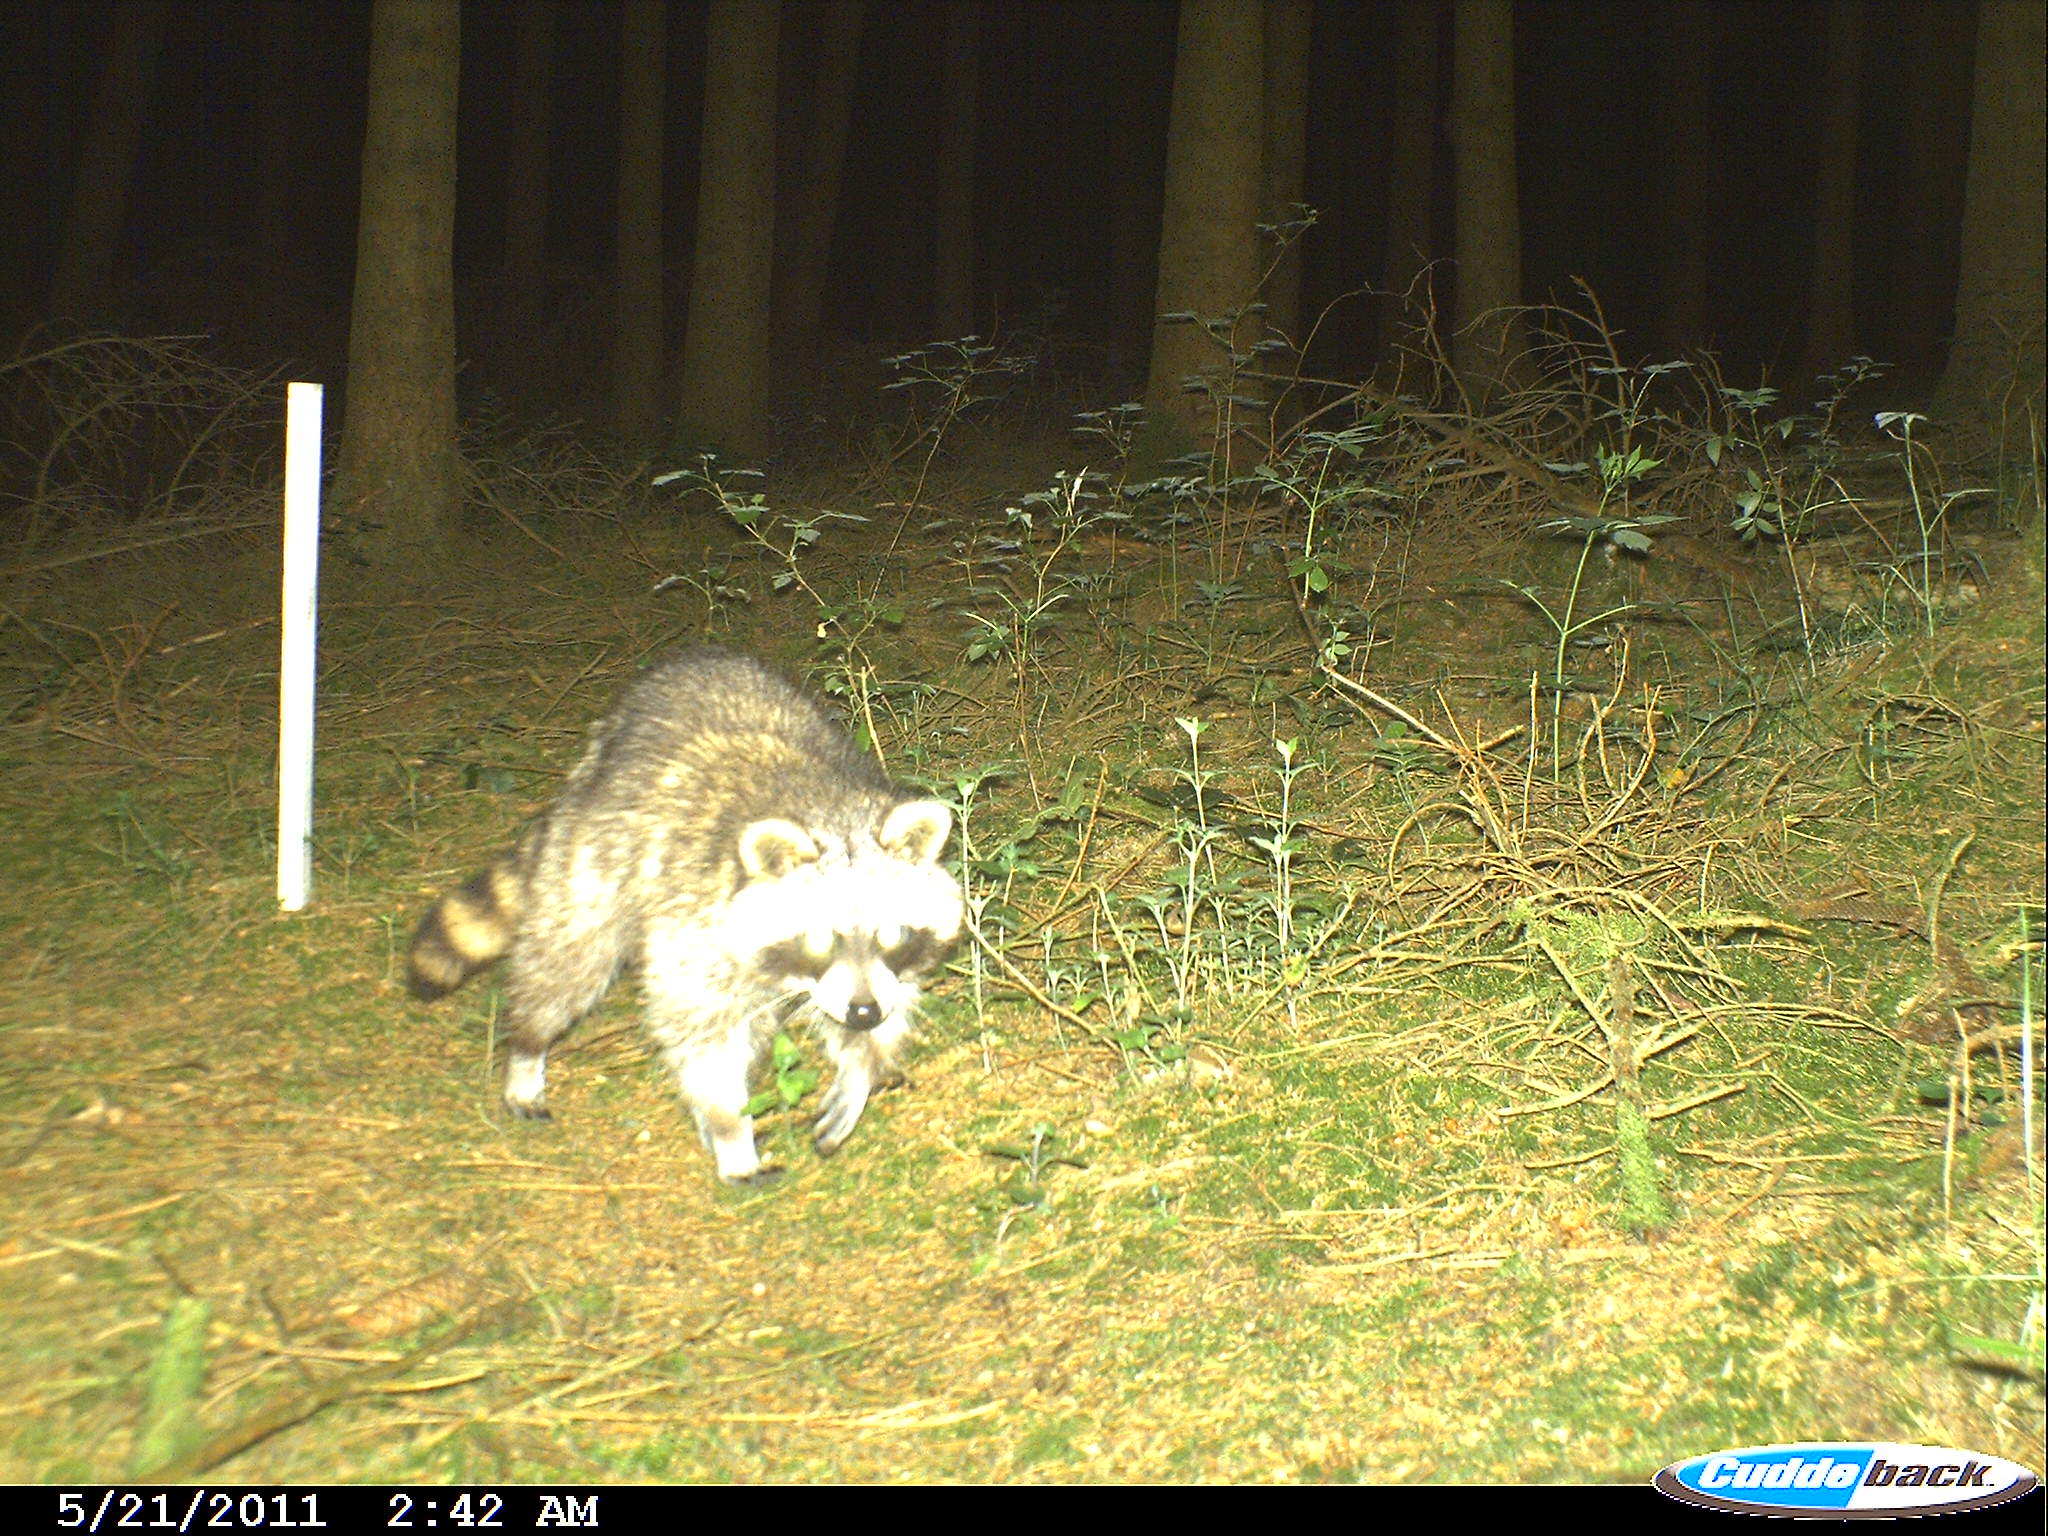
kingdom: Animalia
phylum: Chordata
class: Mammalia
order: Carnivora
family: Procyonidae
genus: Procyon
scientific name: Procyon lotor
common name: Raccoon
